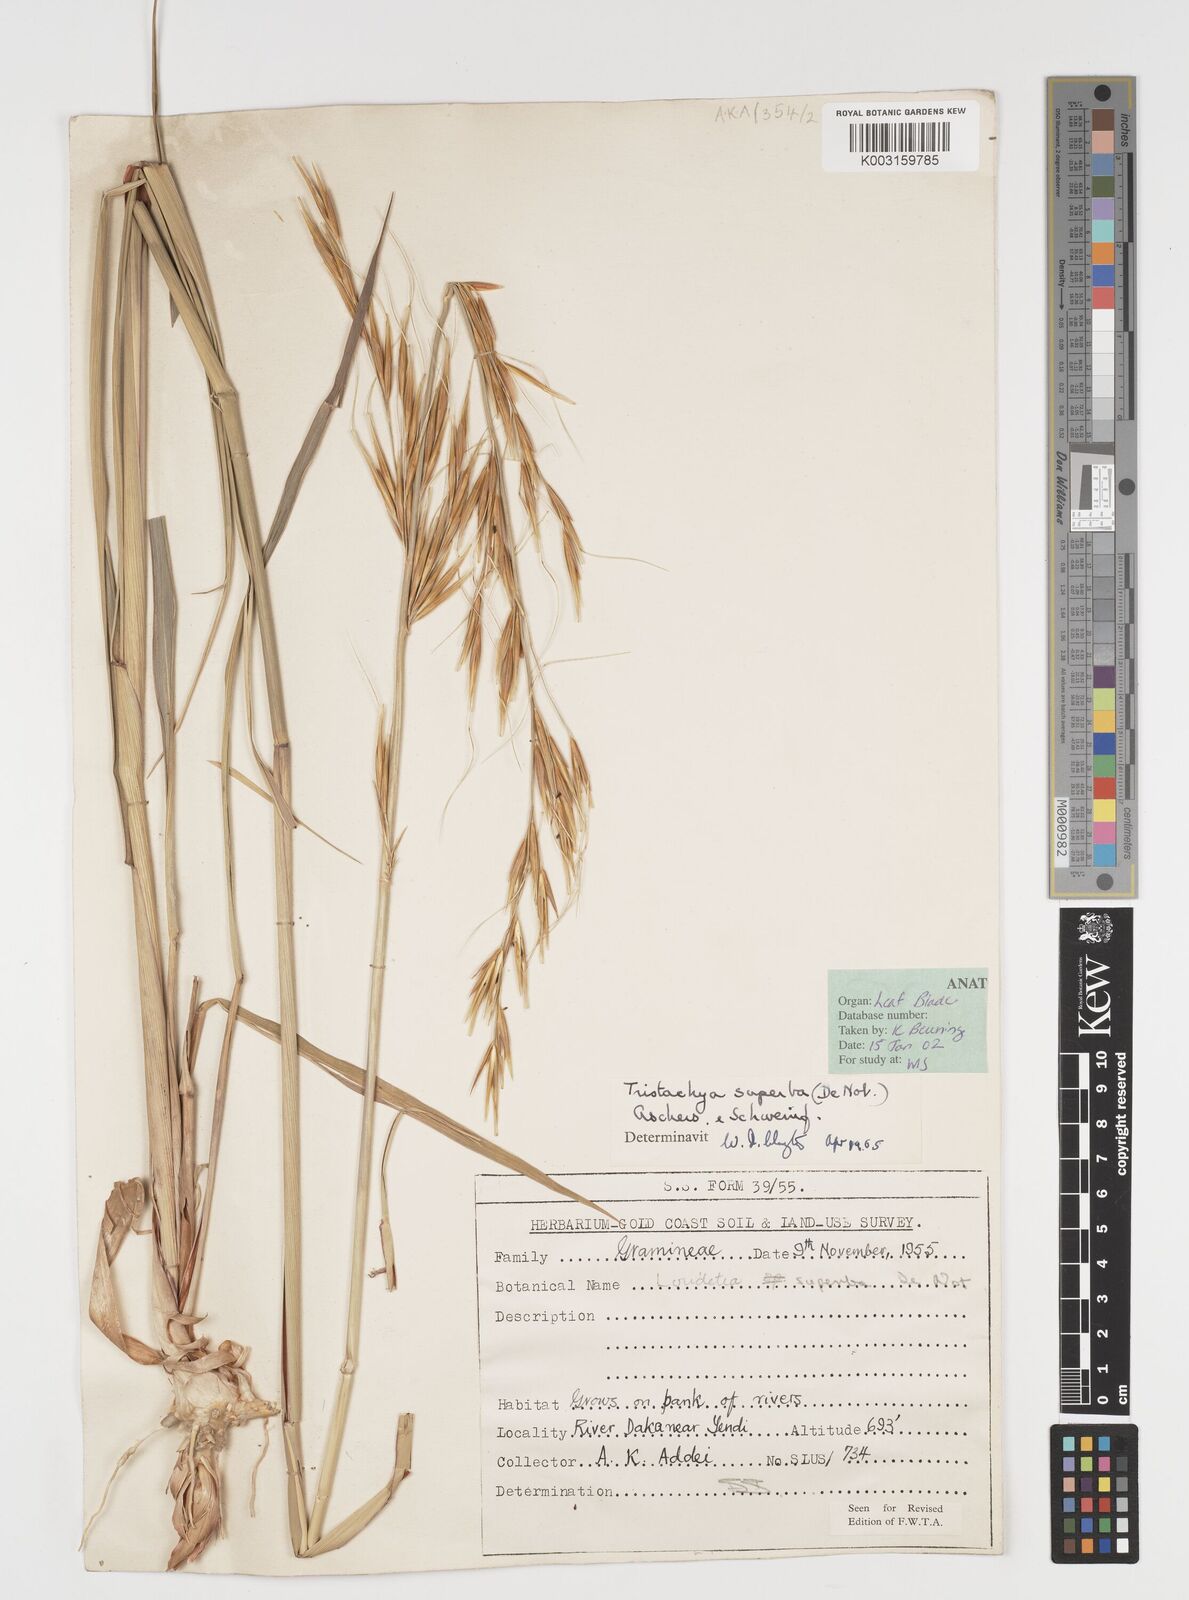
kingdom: Plantae
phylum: Tracheophyta
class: Liliopsida
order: Poales
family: Poaceae
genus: Tristachya
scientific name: Tristachya superba
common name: Giant trident grass
